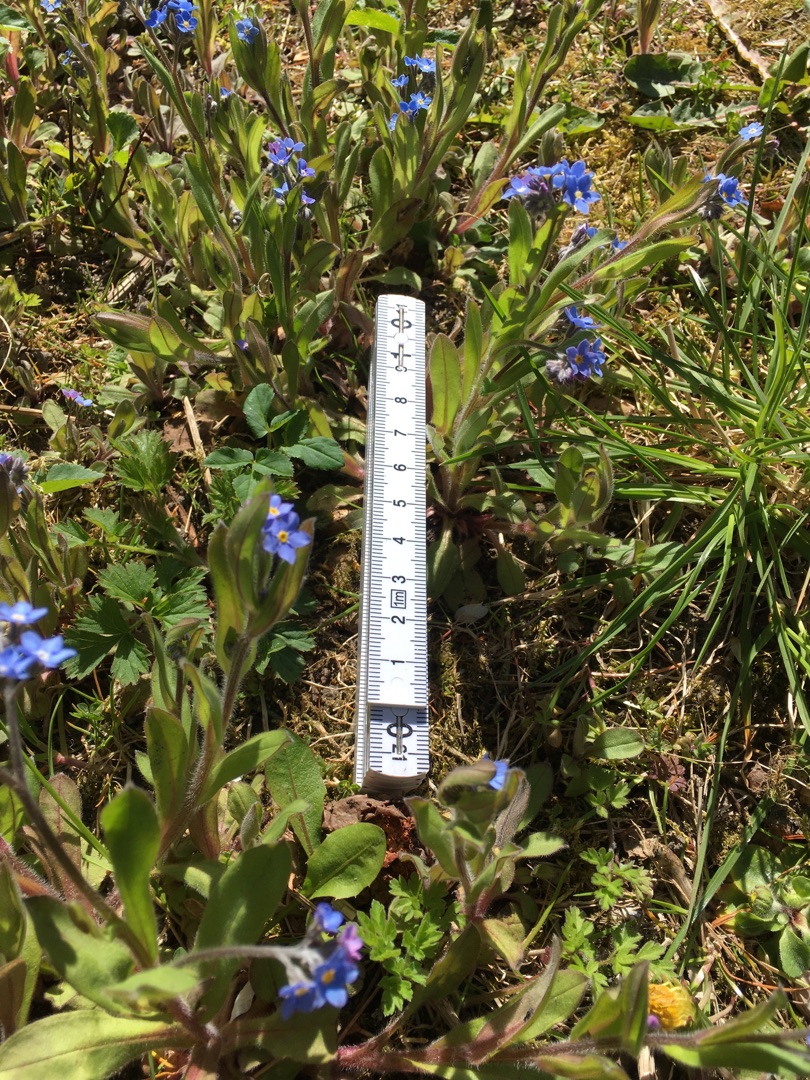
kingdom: Plantae
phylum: Tracheophyta
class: Magnoliopsida
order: Boraginales
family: Boraginaceae
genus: Myosotis
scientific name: Myosotis sylvatica
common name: Skov-forglemmigej
